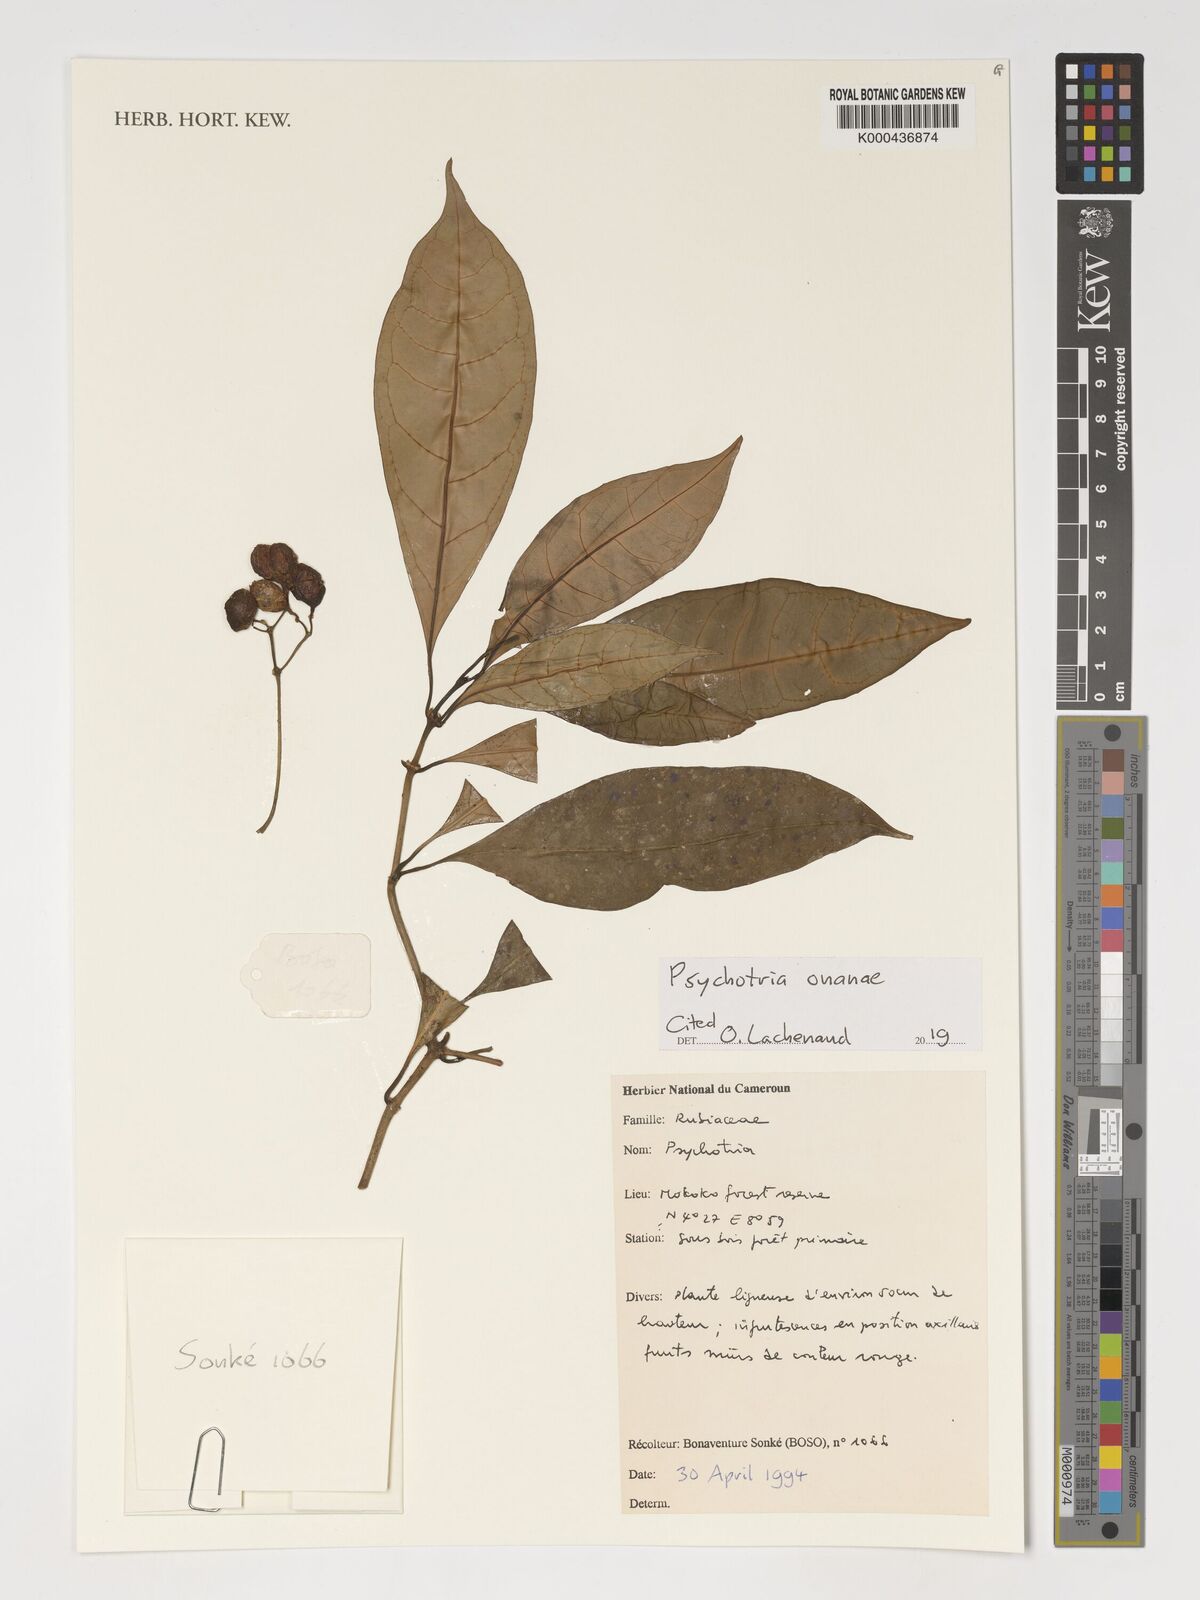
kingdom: Plantae
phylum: Tracheophyta
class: Magnoliopsida
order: Gentianales
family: Rubiaceae
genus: Psychotria
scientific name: Psychotria onanae
